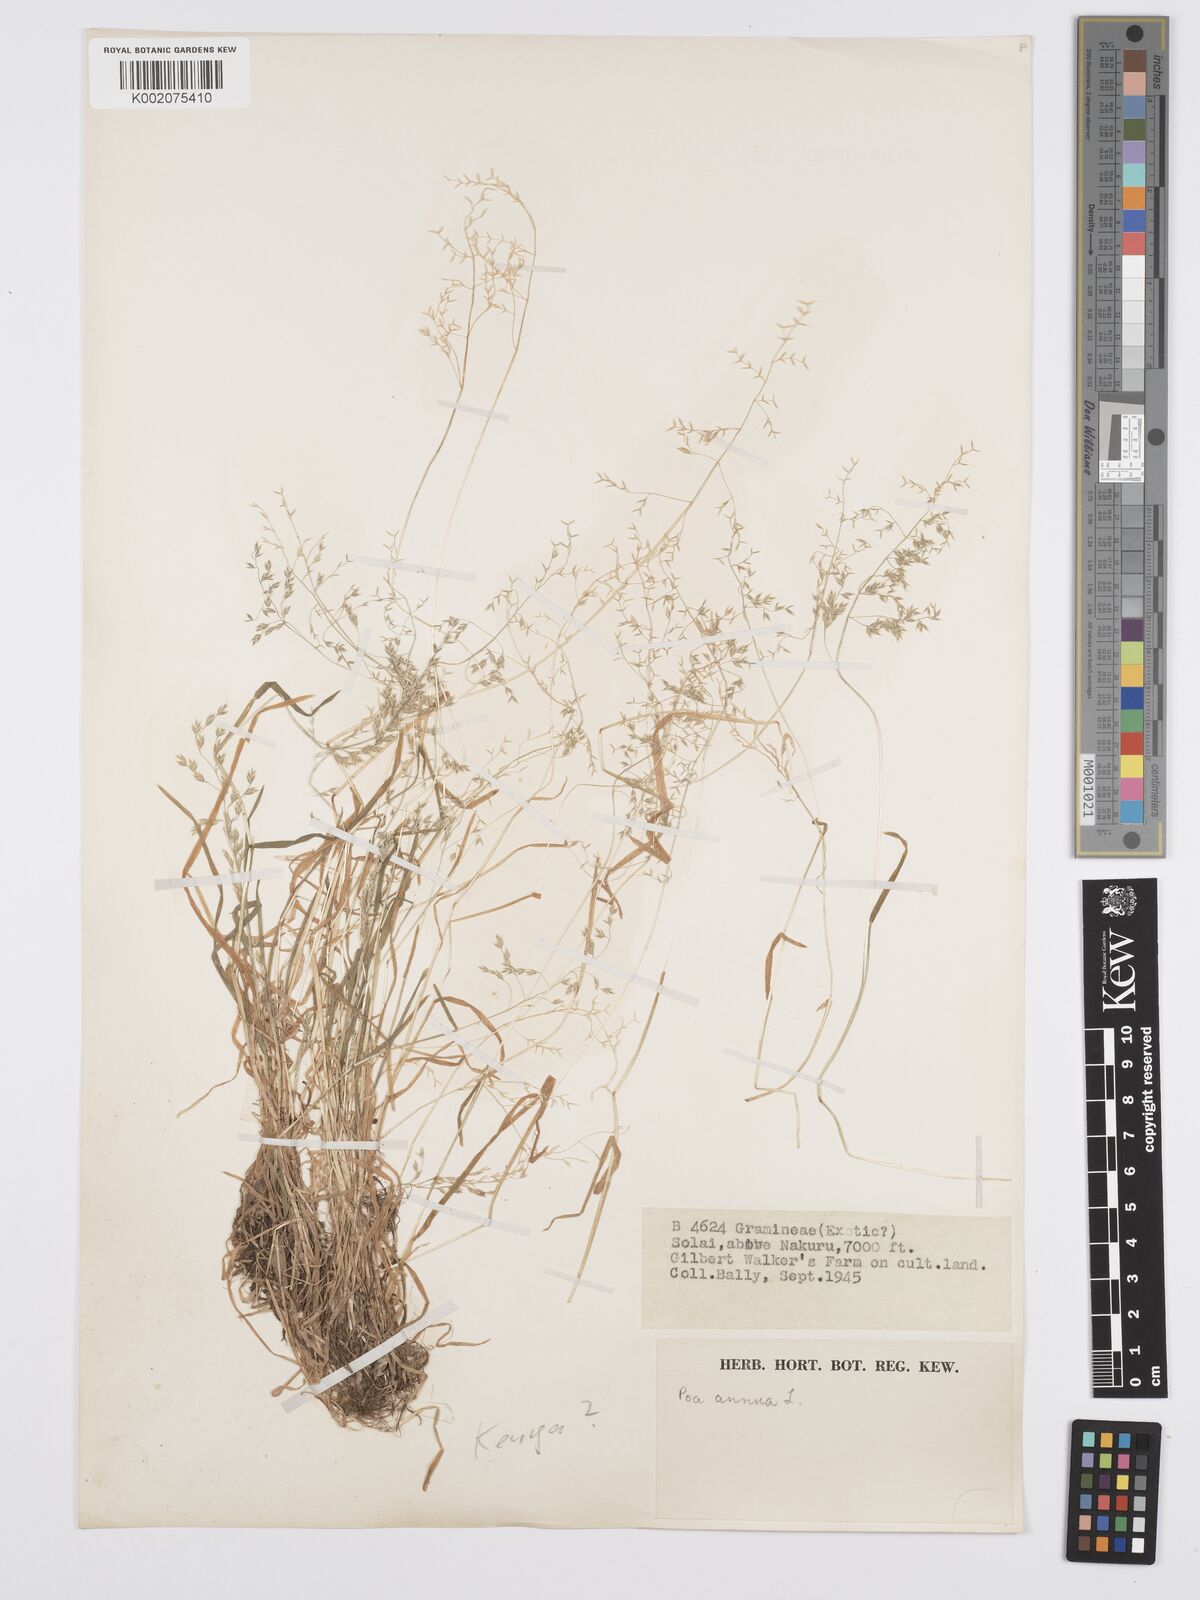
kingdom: Plantae
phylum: Tracheophyta
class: Liliopsida
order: Poales
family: Poaceae
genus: Poa
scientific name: Poa annua
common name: Annual bluegrass
